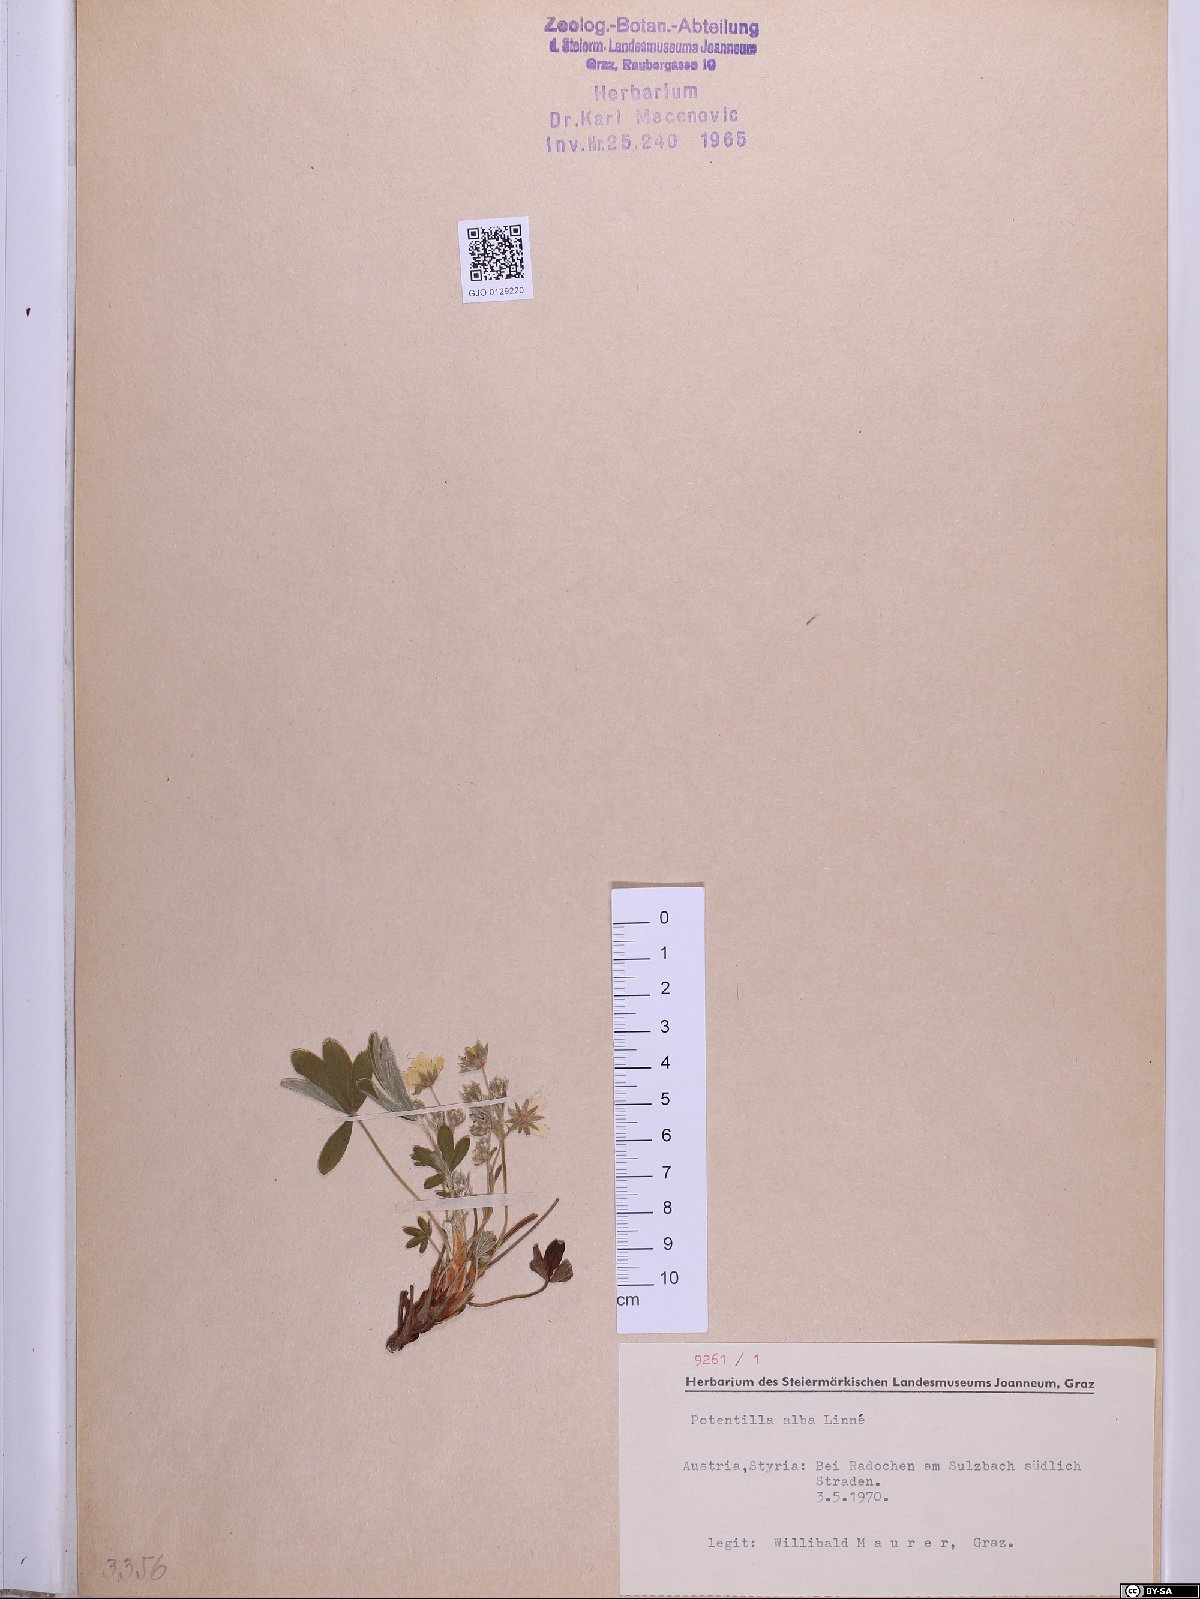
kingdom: Plantae
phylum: Tracheophyta
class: Magnoliopsida
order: Rosales
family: Rosaceae
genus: Potentilla
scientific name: Potentilla alba
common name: White cinquefoil
